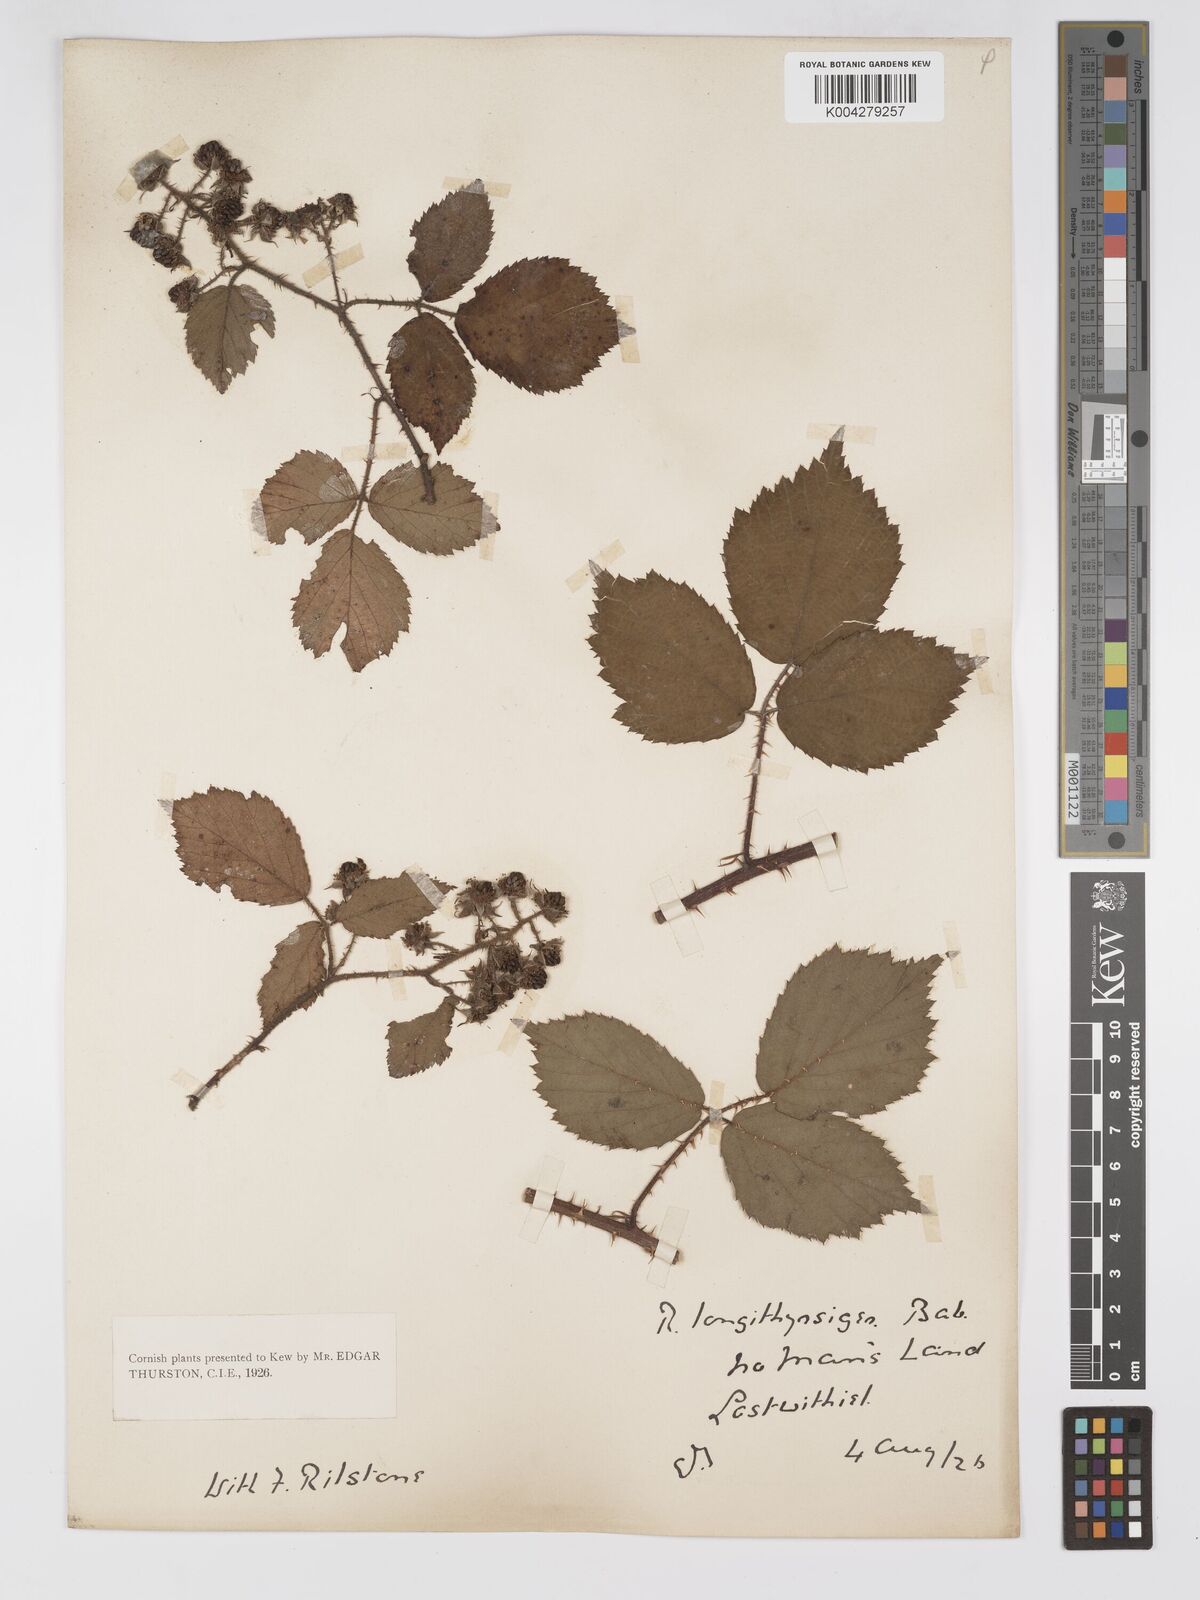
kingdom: Plantae
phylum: Tracheophyta
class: Magnoliopsida
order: Rosales
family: Rosaceae
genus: Rubus
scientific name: Rubus longithyrsiger
